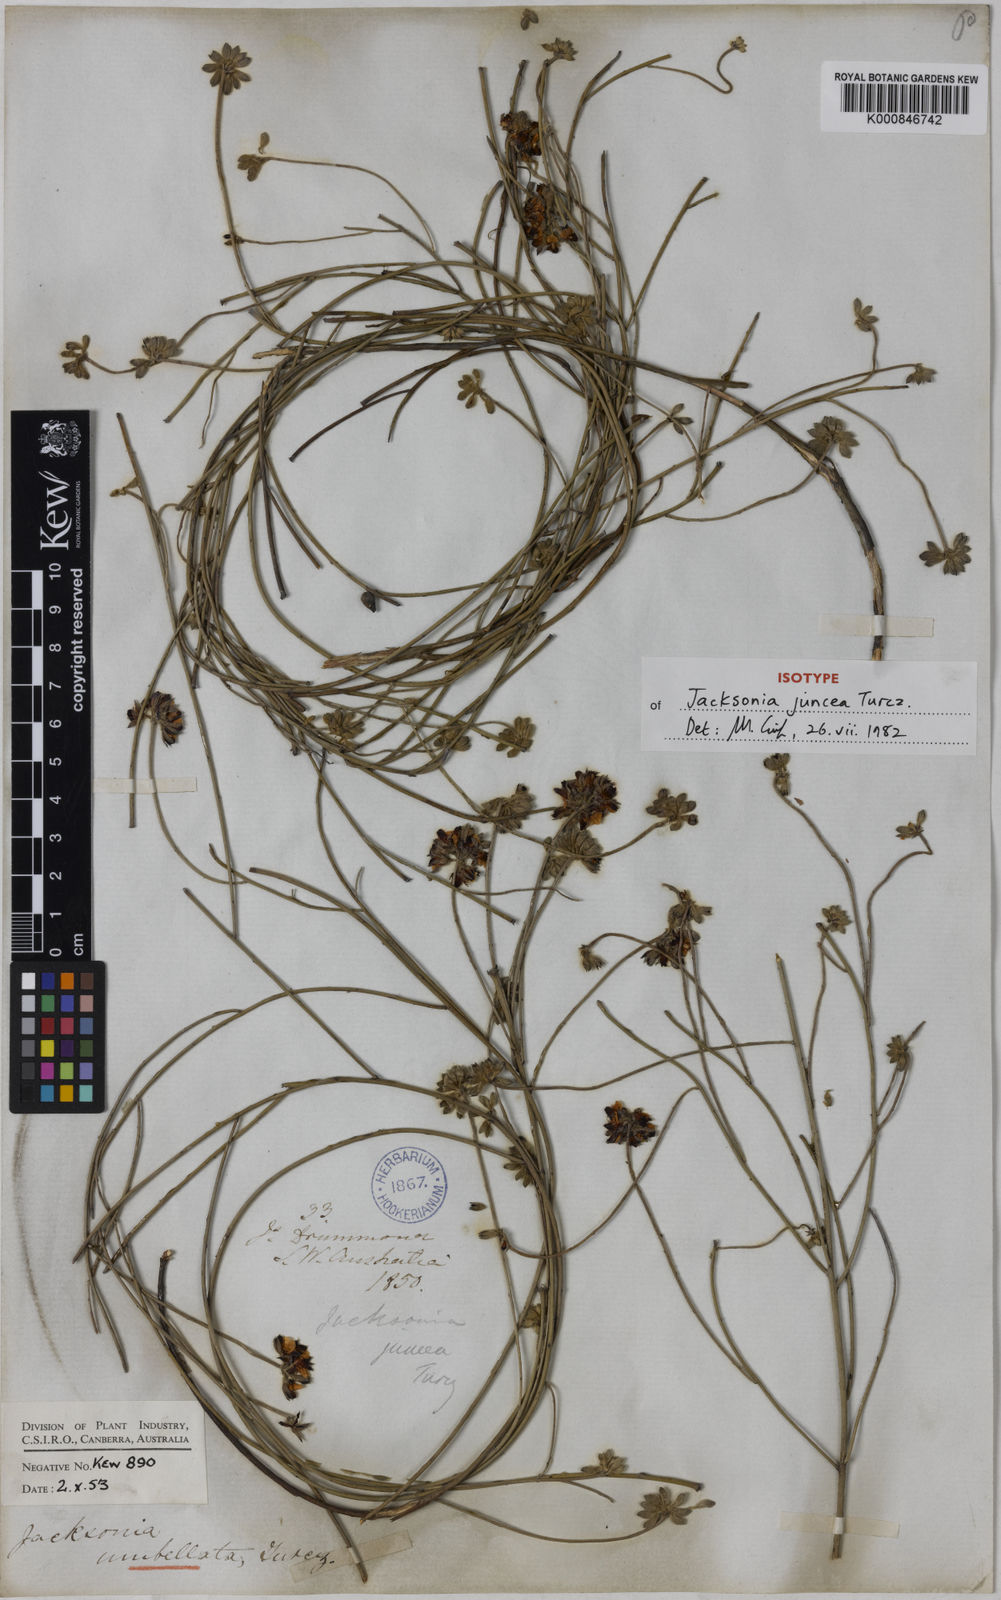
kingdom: Plantae
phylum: Tracheophyta
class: Magnoliopsida
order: Fabales
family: Fabaceae
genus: Jacksonia
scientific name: Jacksonia capitata
